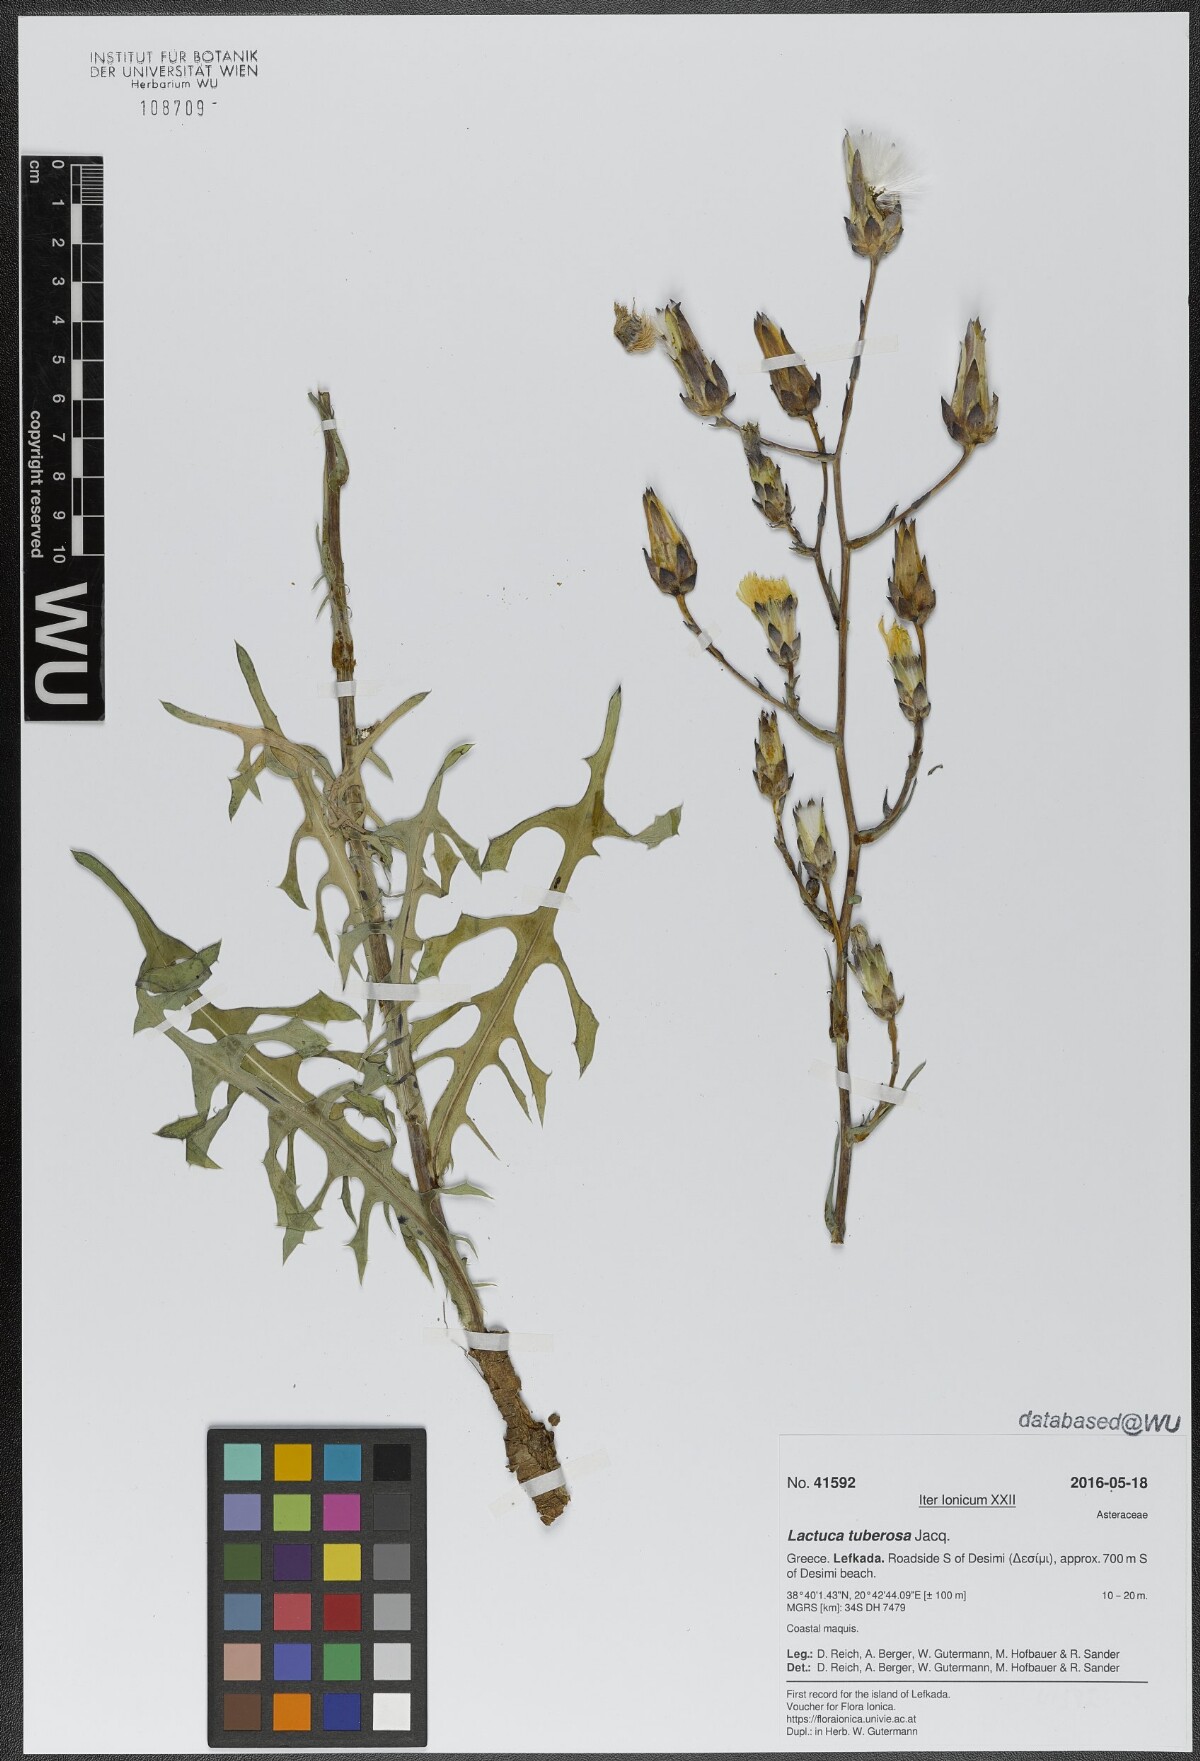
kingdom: Plantae
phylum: Tracheophyta
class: Magnoliopsida
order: Asterales
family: Asteraceae
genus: Lactuca
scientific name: Lactuca tuberosa
